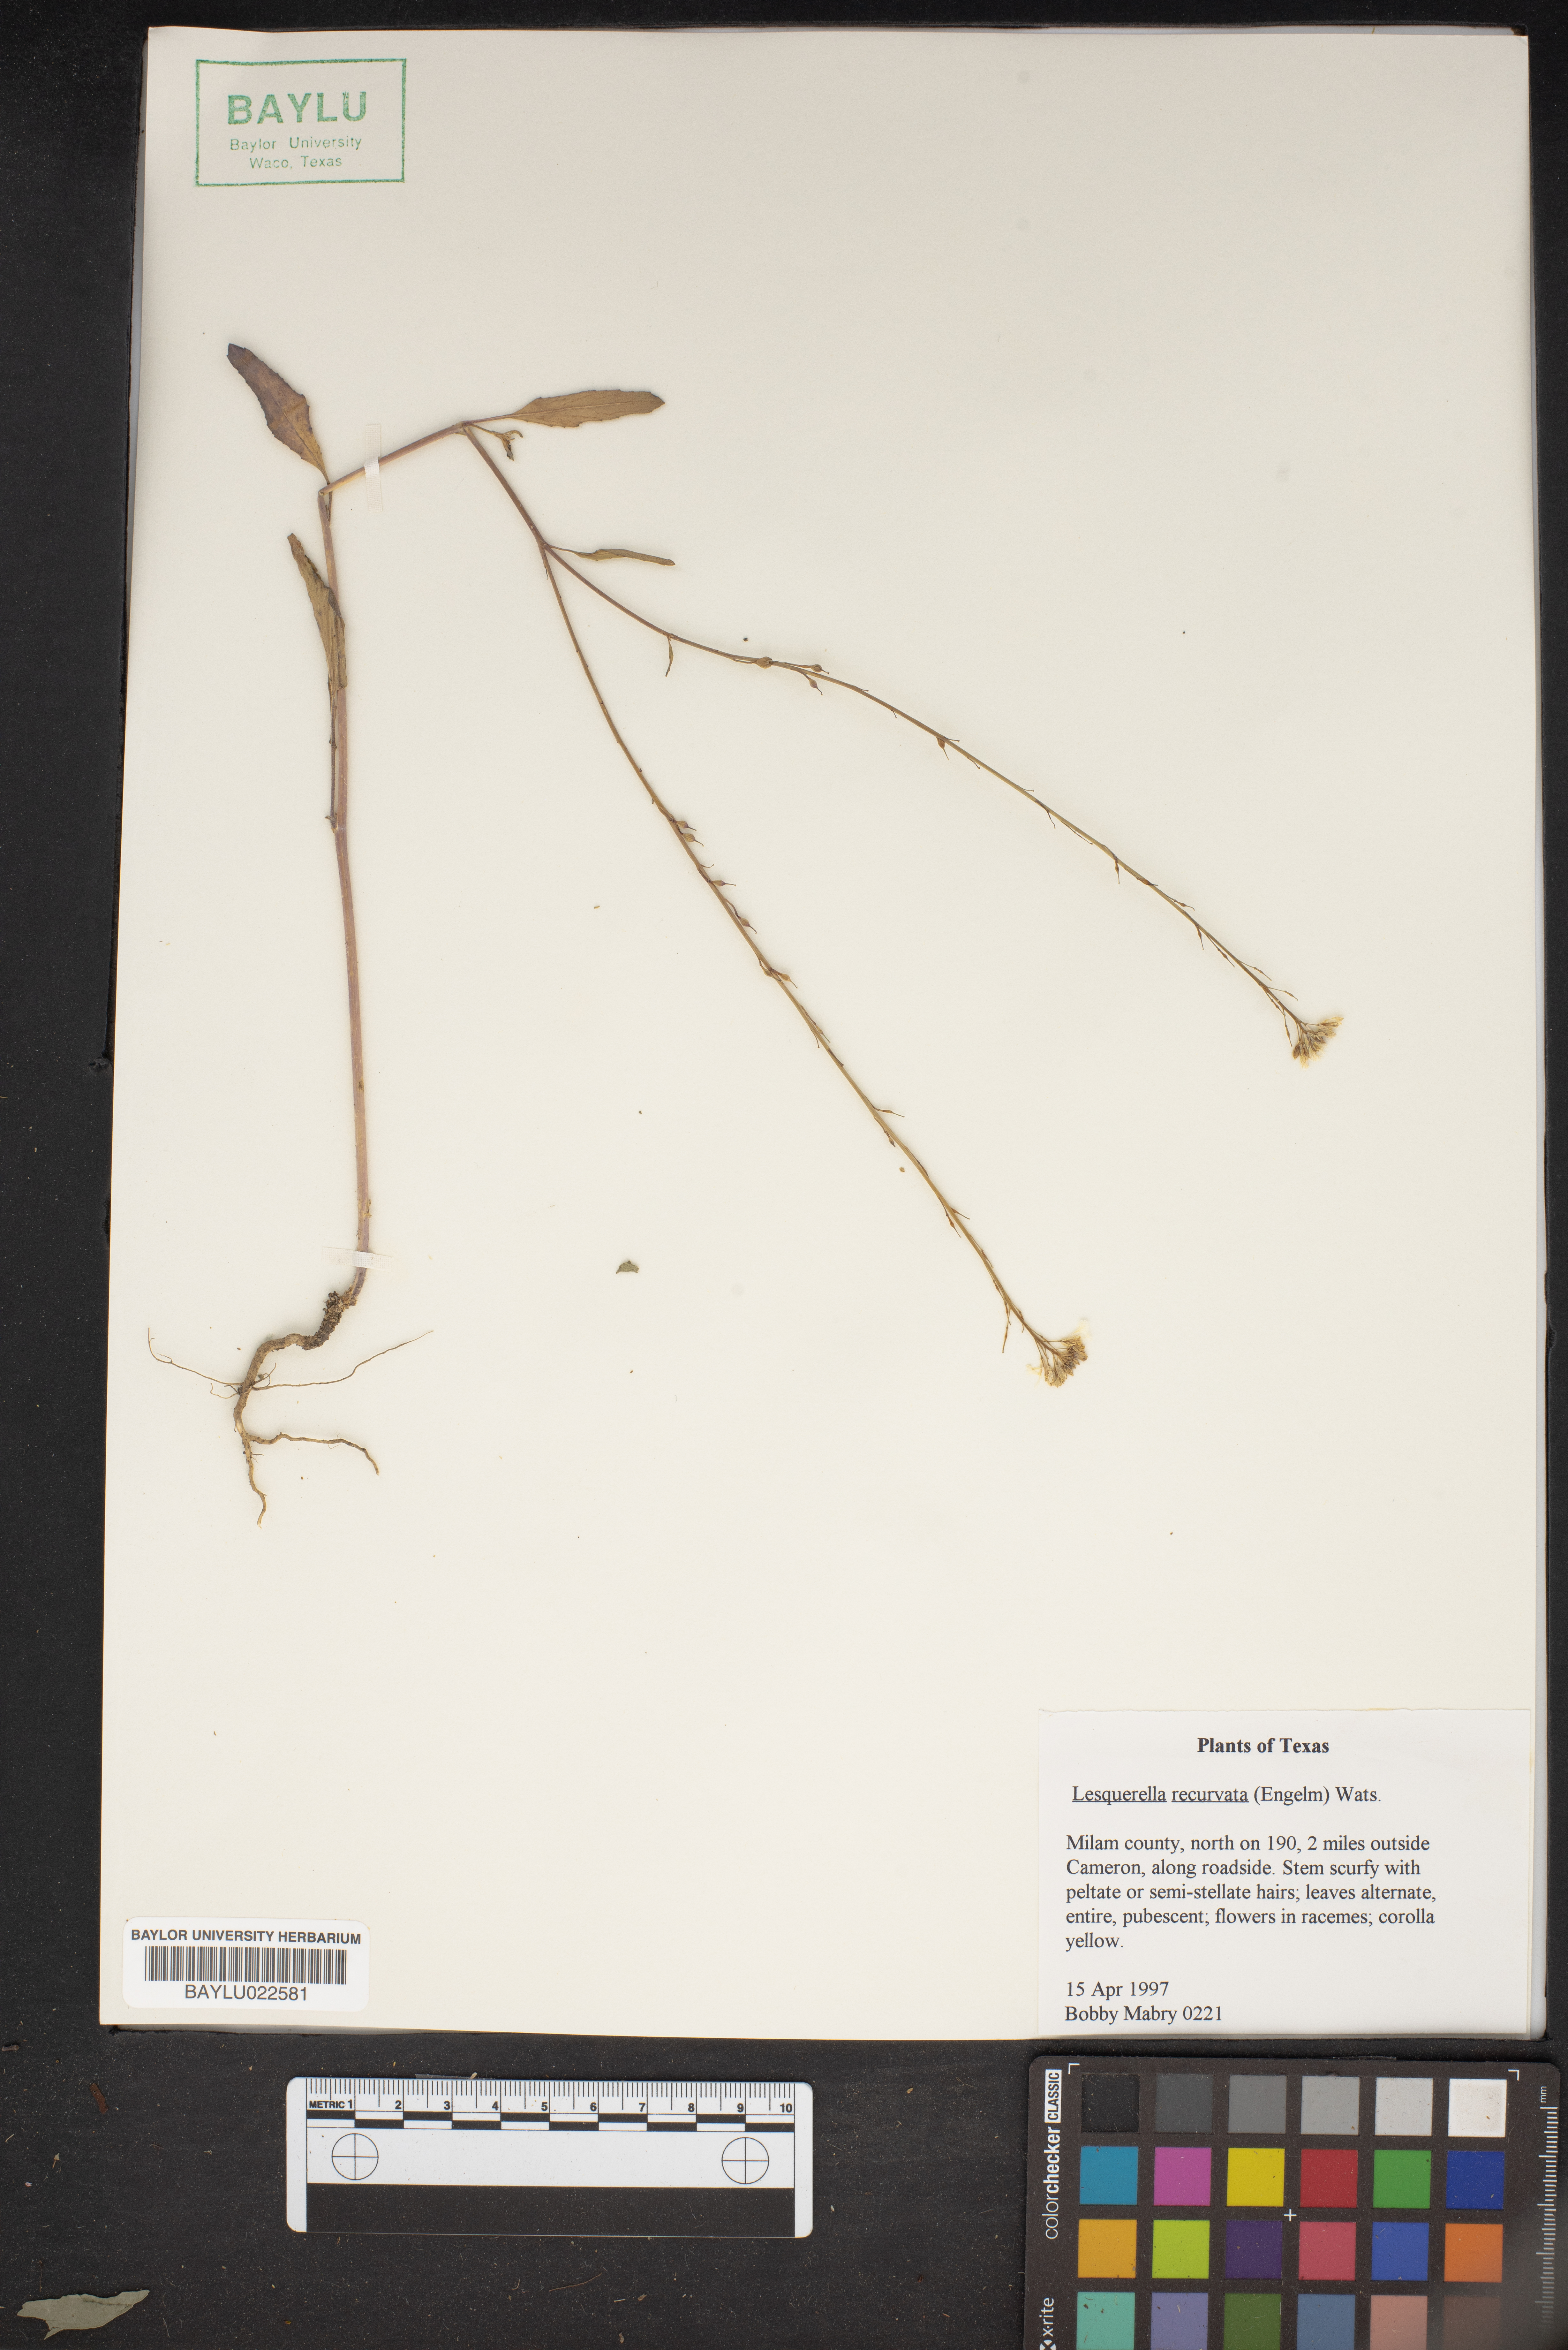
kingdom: Plantae
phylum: Tracheophyta
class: Magnoliopsida
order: Brassicales
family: Brassicaceae
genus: Physaria
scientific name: Physaria recurvata
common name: Gaslight bladderpod
